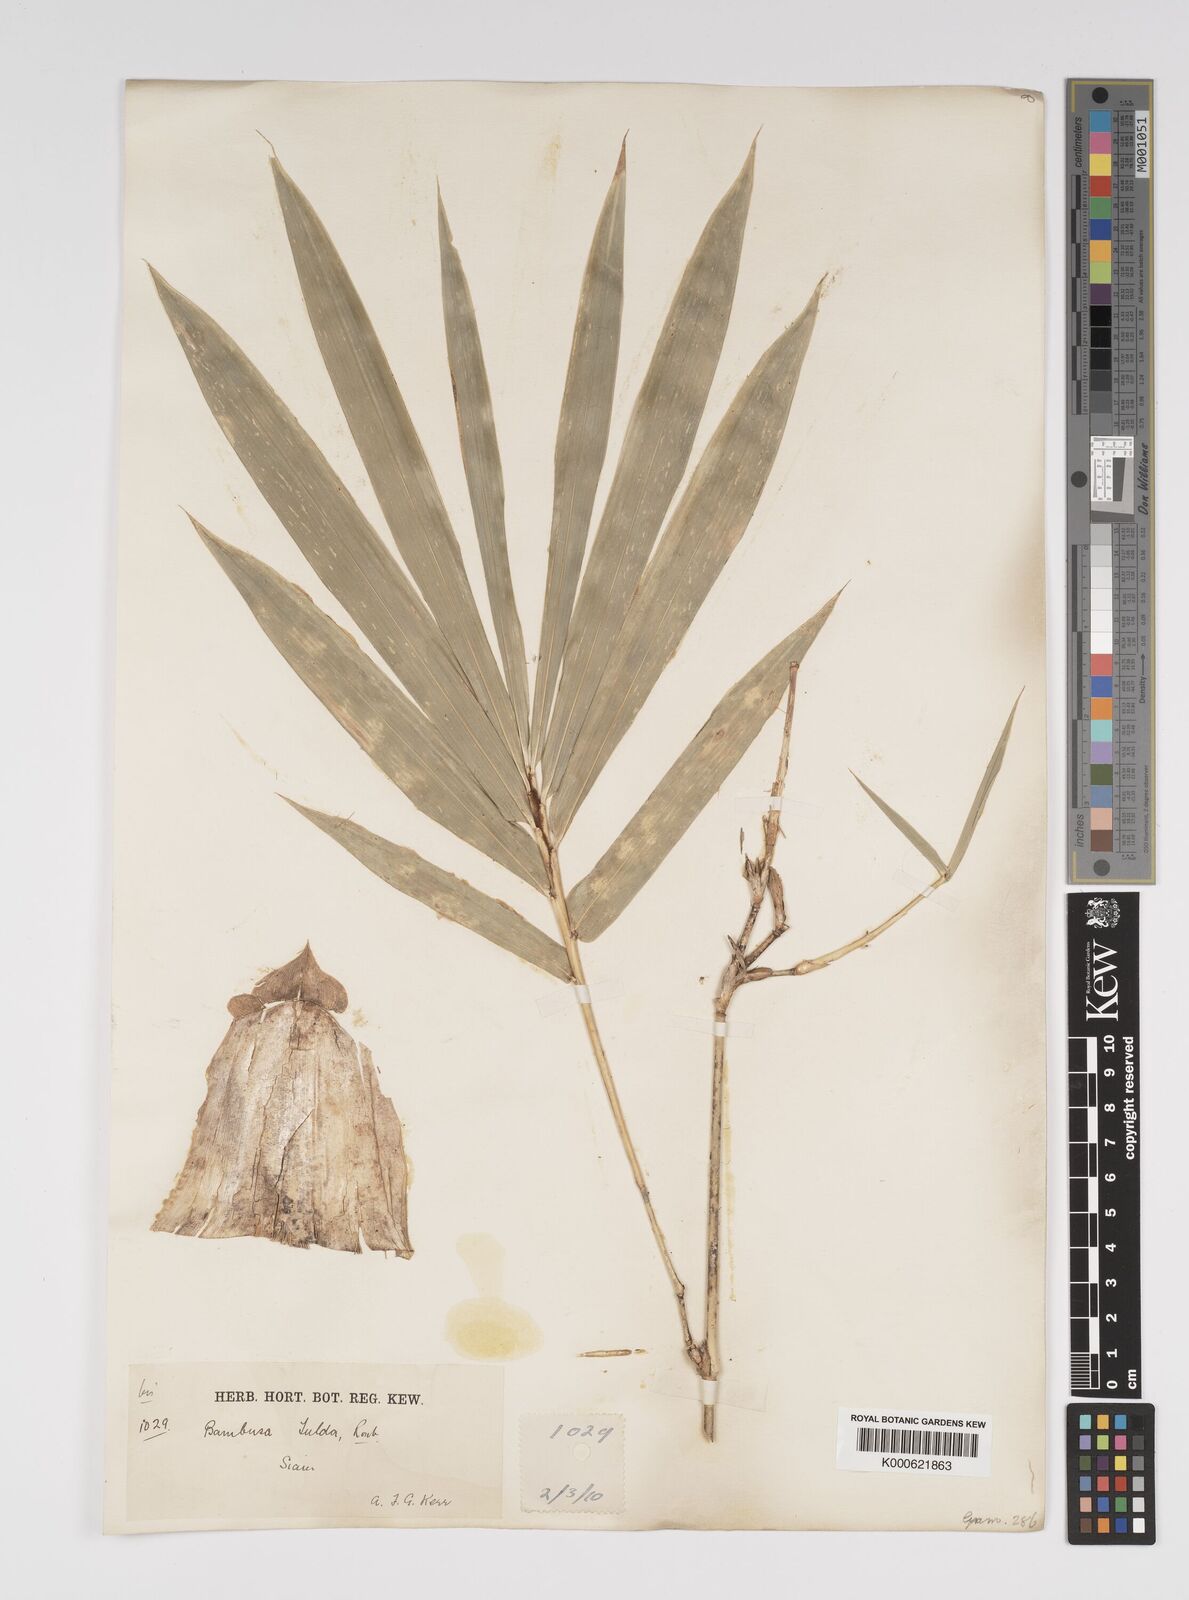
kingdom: Plantae
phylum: Tracheophyta
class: Liliopsida
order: Poales
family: Poaceae
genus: Bambusa
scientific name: Bambusa tulda
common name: Bengal bamboo
